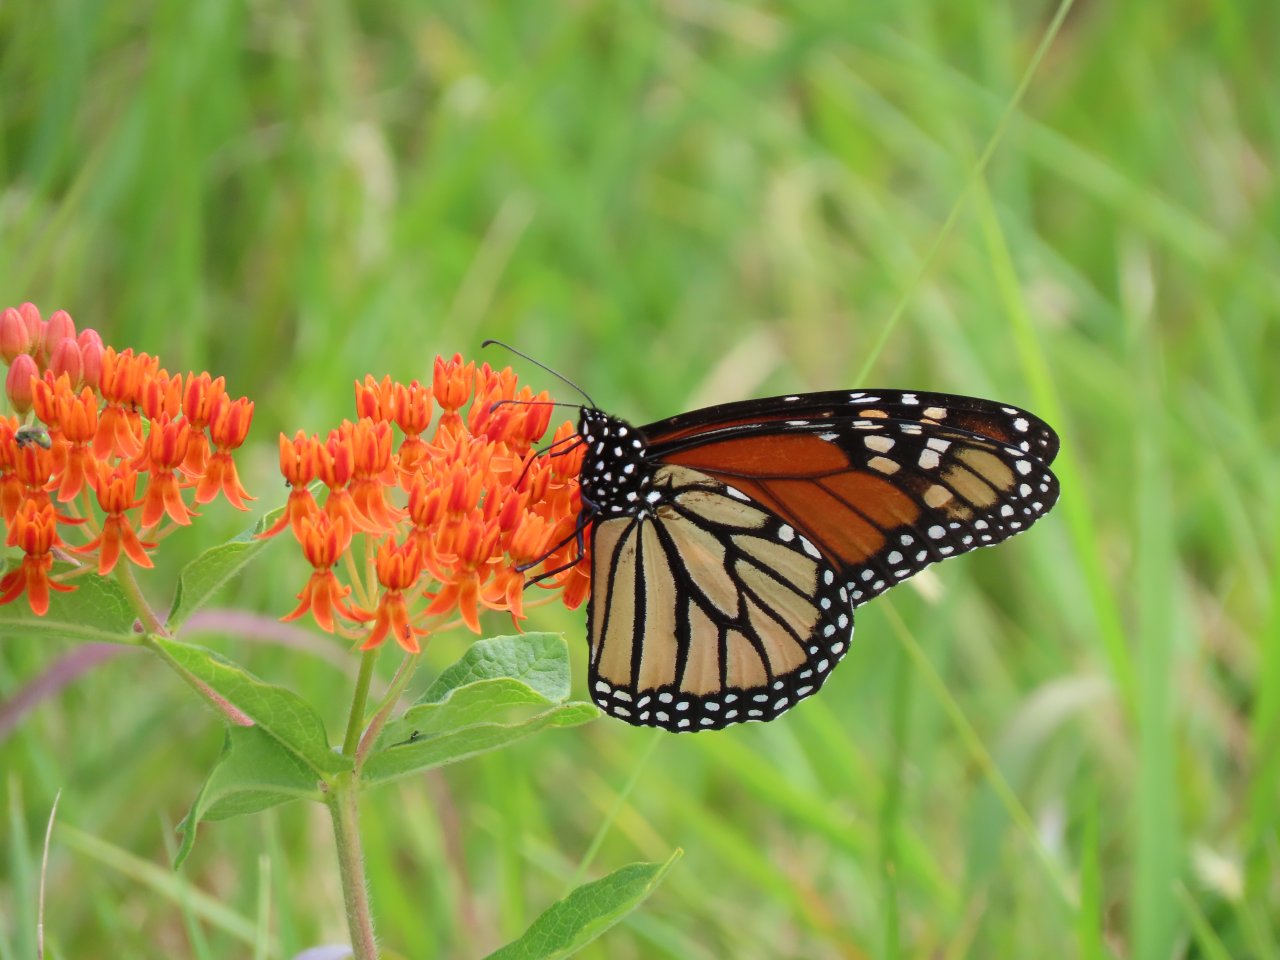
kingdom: Animalia
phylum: Arthropoda
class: Insecta
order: Lepidoptera
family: Nymphalidae
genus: Danaus
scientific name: Danaus plexippus
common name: Monarch
